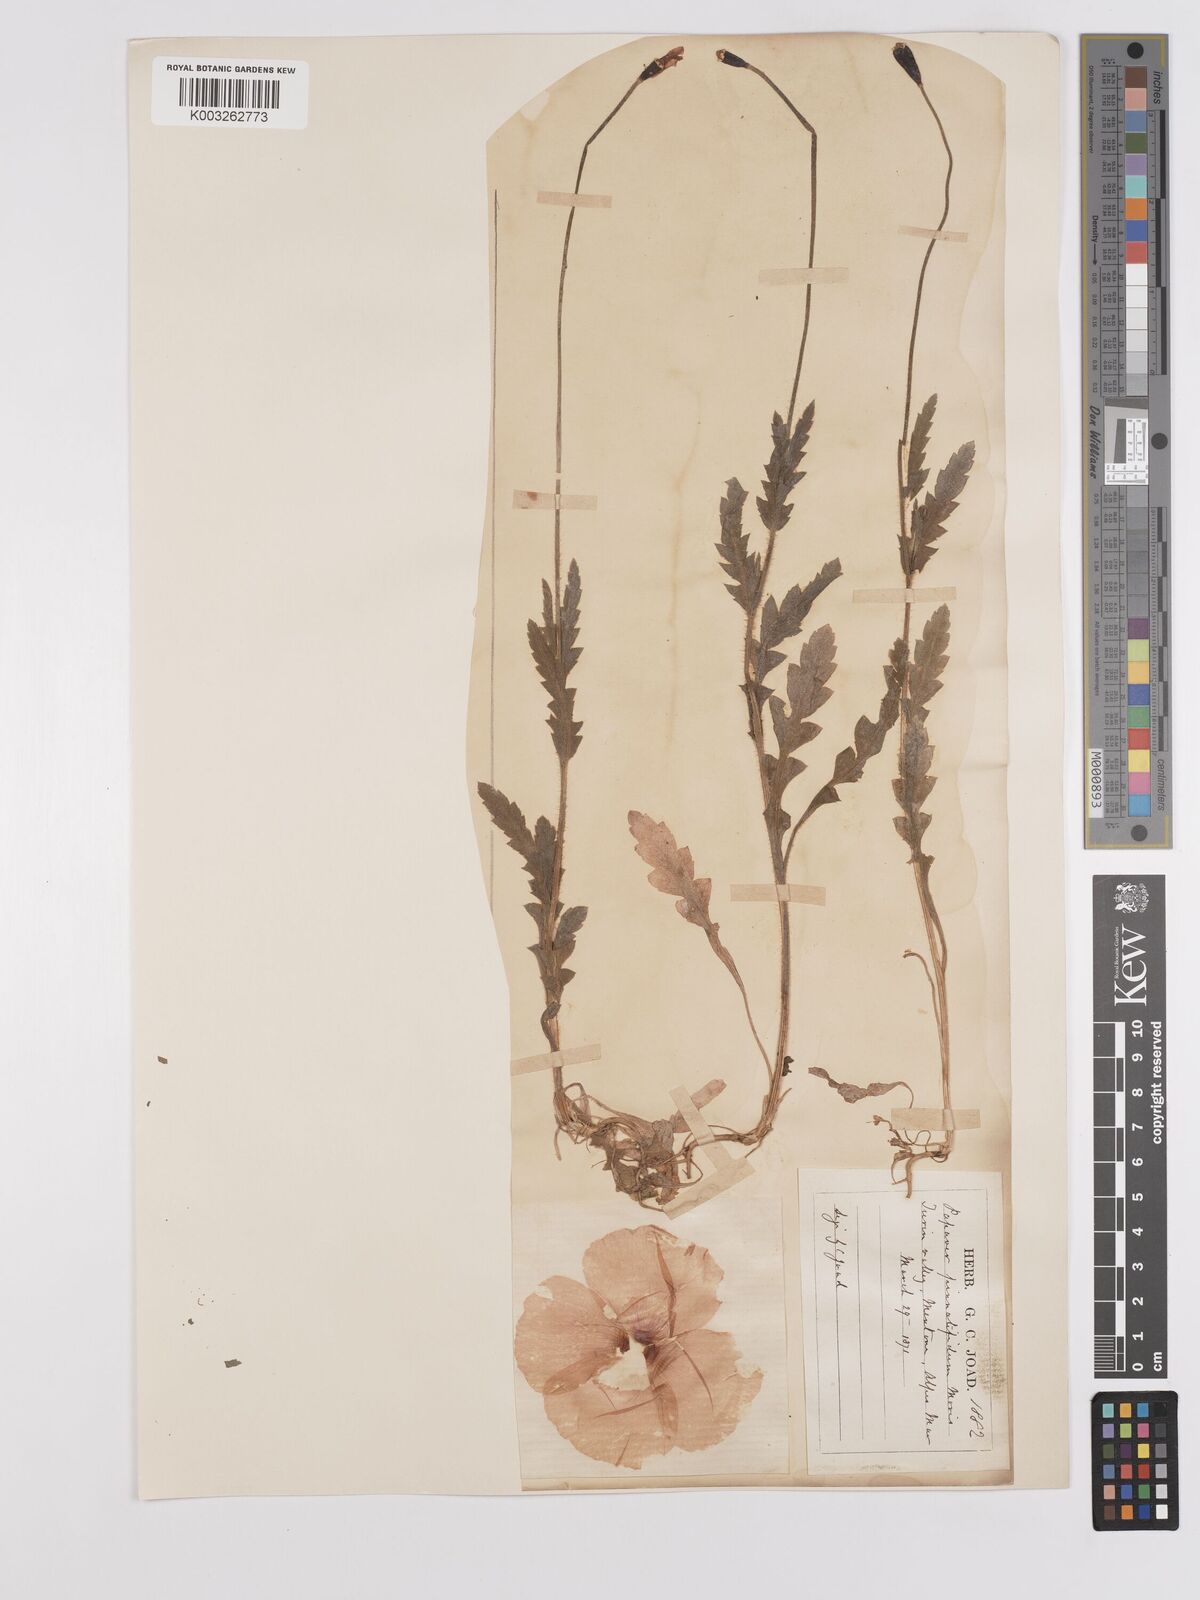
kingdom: Plantae
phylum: Tracheophyta
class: Magnoliopsida
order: Ranunculales
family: Papaveraceae
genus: Papaver
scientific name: Papaver pinnatifidum
